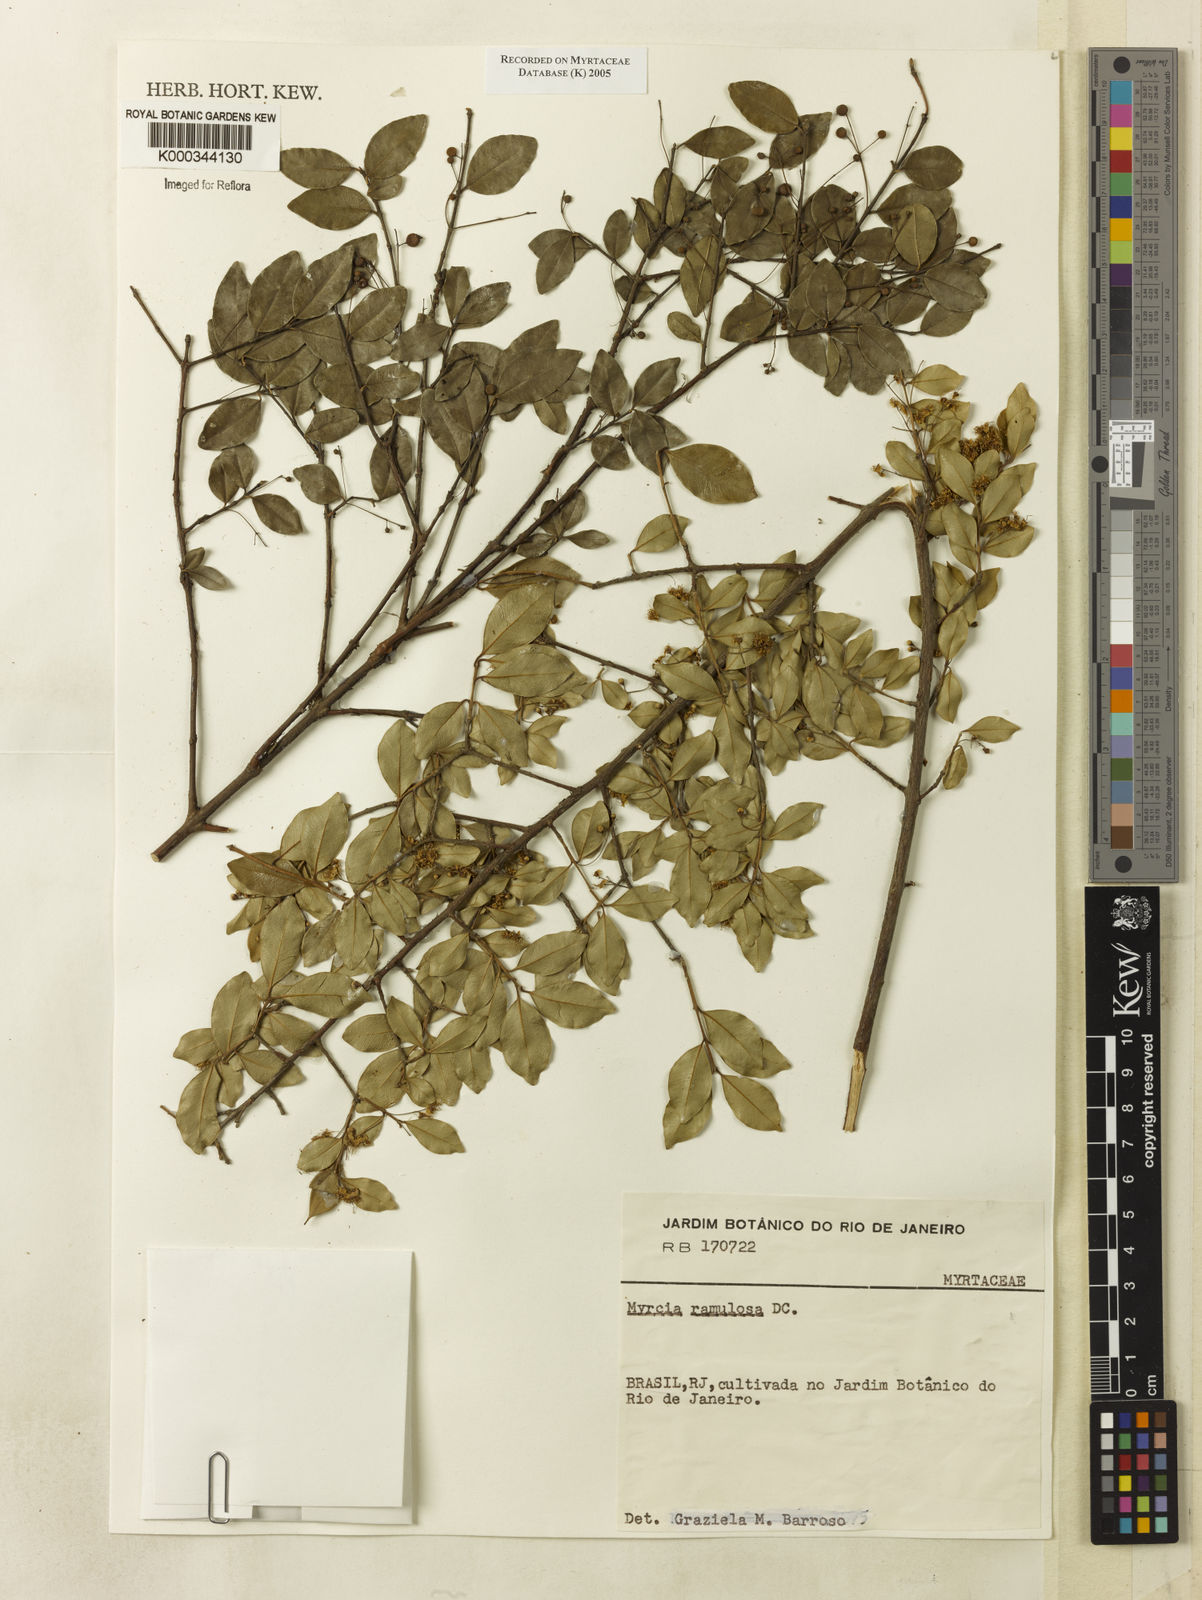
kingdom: Plantae
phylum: Tracheophyta
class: Magnoliopsida
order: Myrtales
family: Myrtaceae
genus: Myrcia
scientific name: Myrcia selloi
